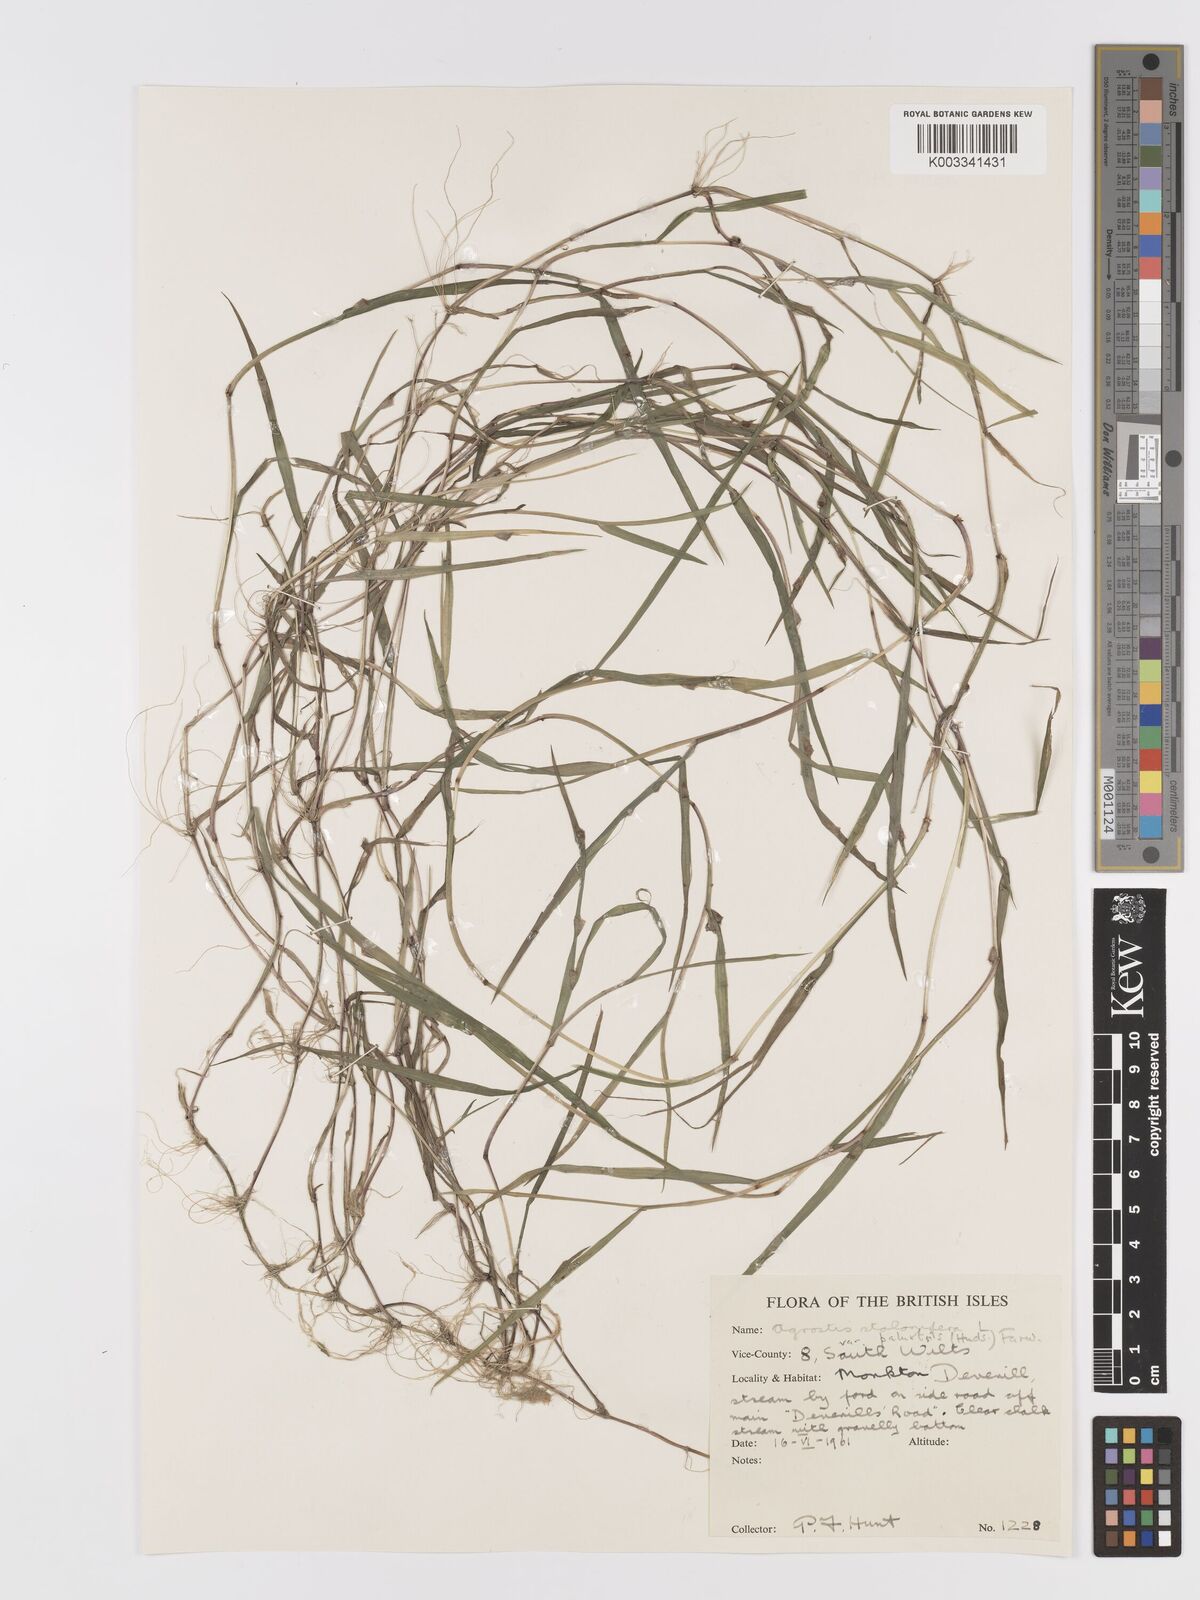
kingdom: Plantae
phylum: Tracheophyta
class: Liliopsida
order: Poales
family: Poaceae
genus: Agrostis
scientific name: Agrostis stolonifera
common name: Creeping bentgrass
